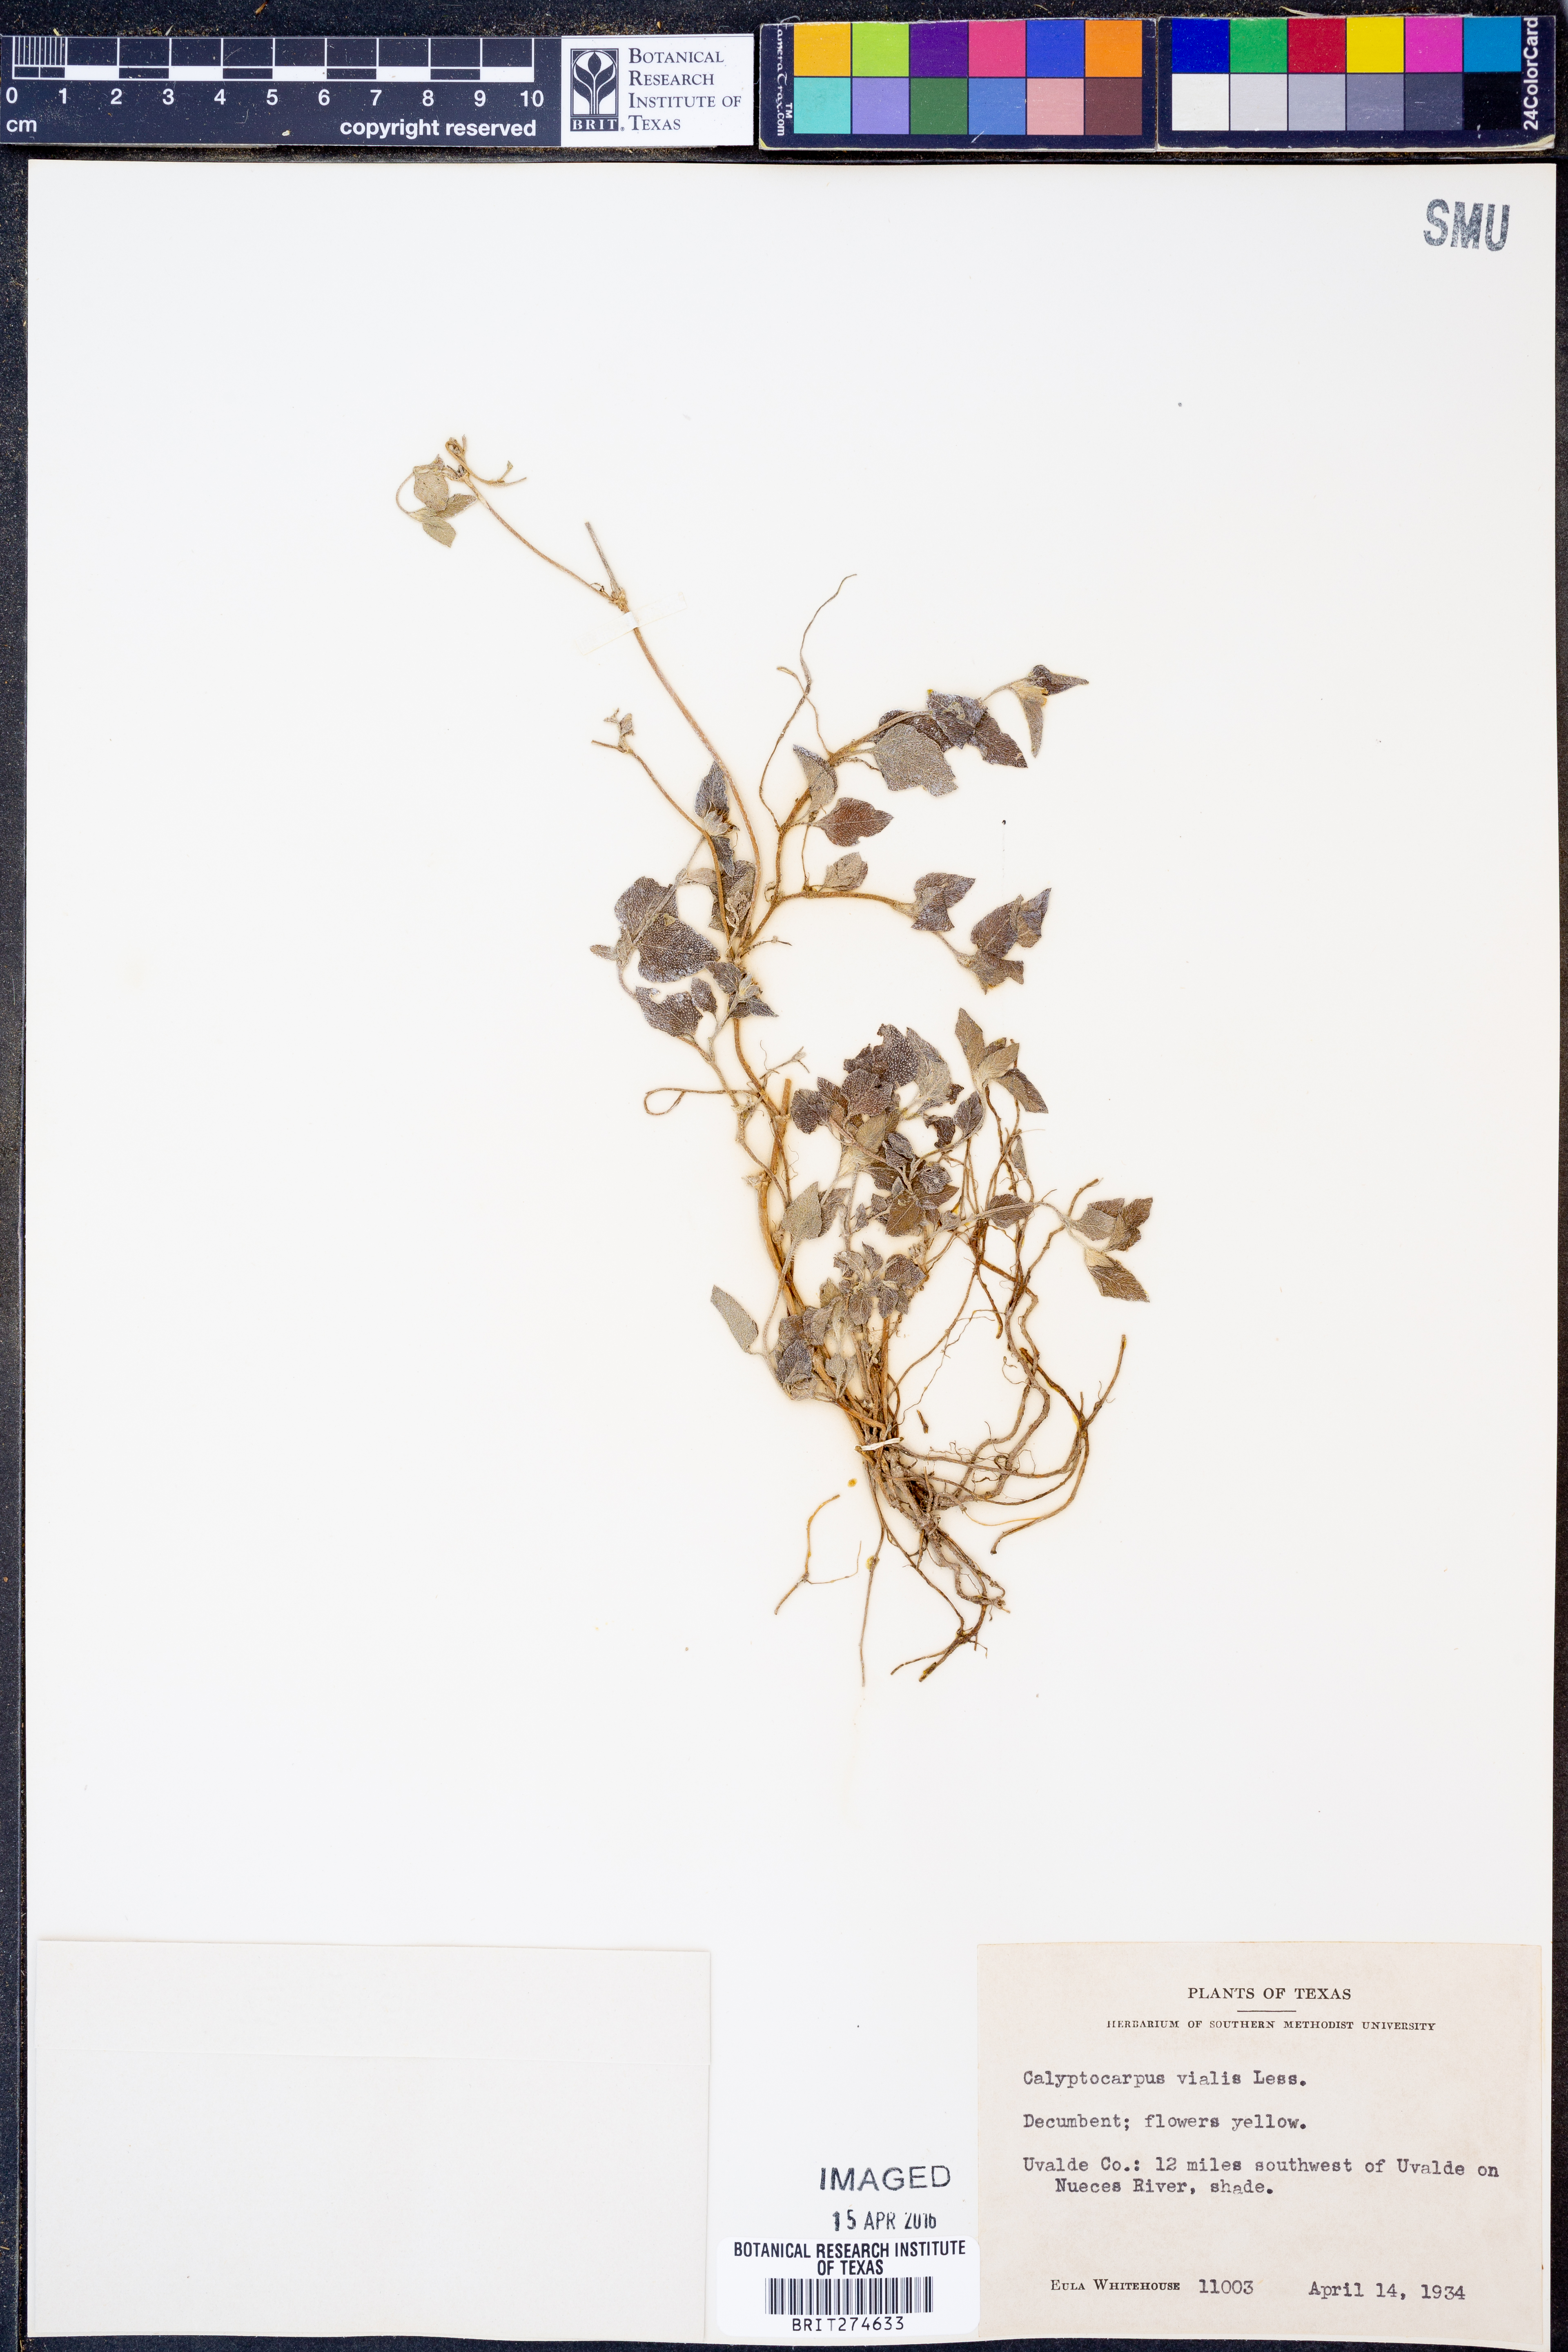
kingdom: Plantae
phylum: Tracheophyta
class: Magnoliopsida
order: Asterales
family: Asteraceae
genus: Calyptocarpus
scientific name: Calyptocarpus vialis
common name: Straggler daisy
